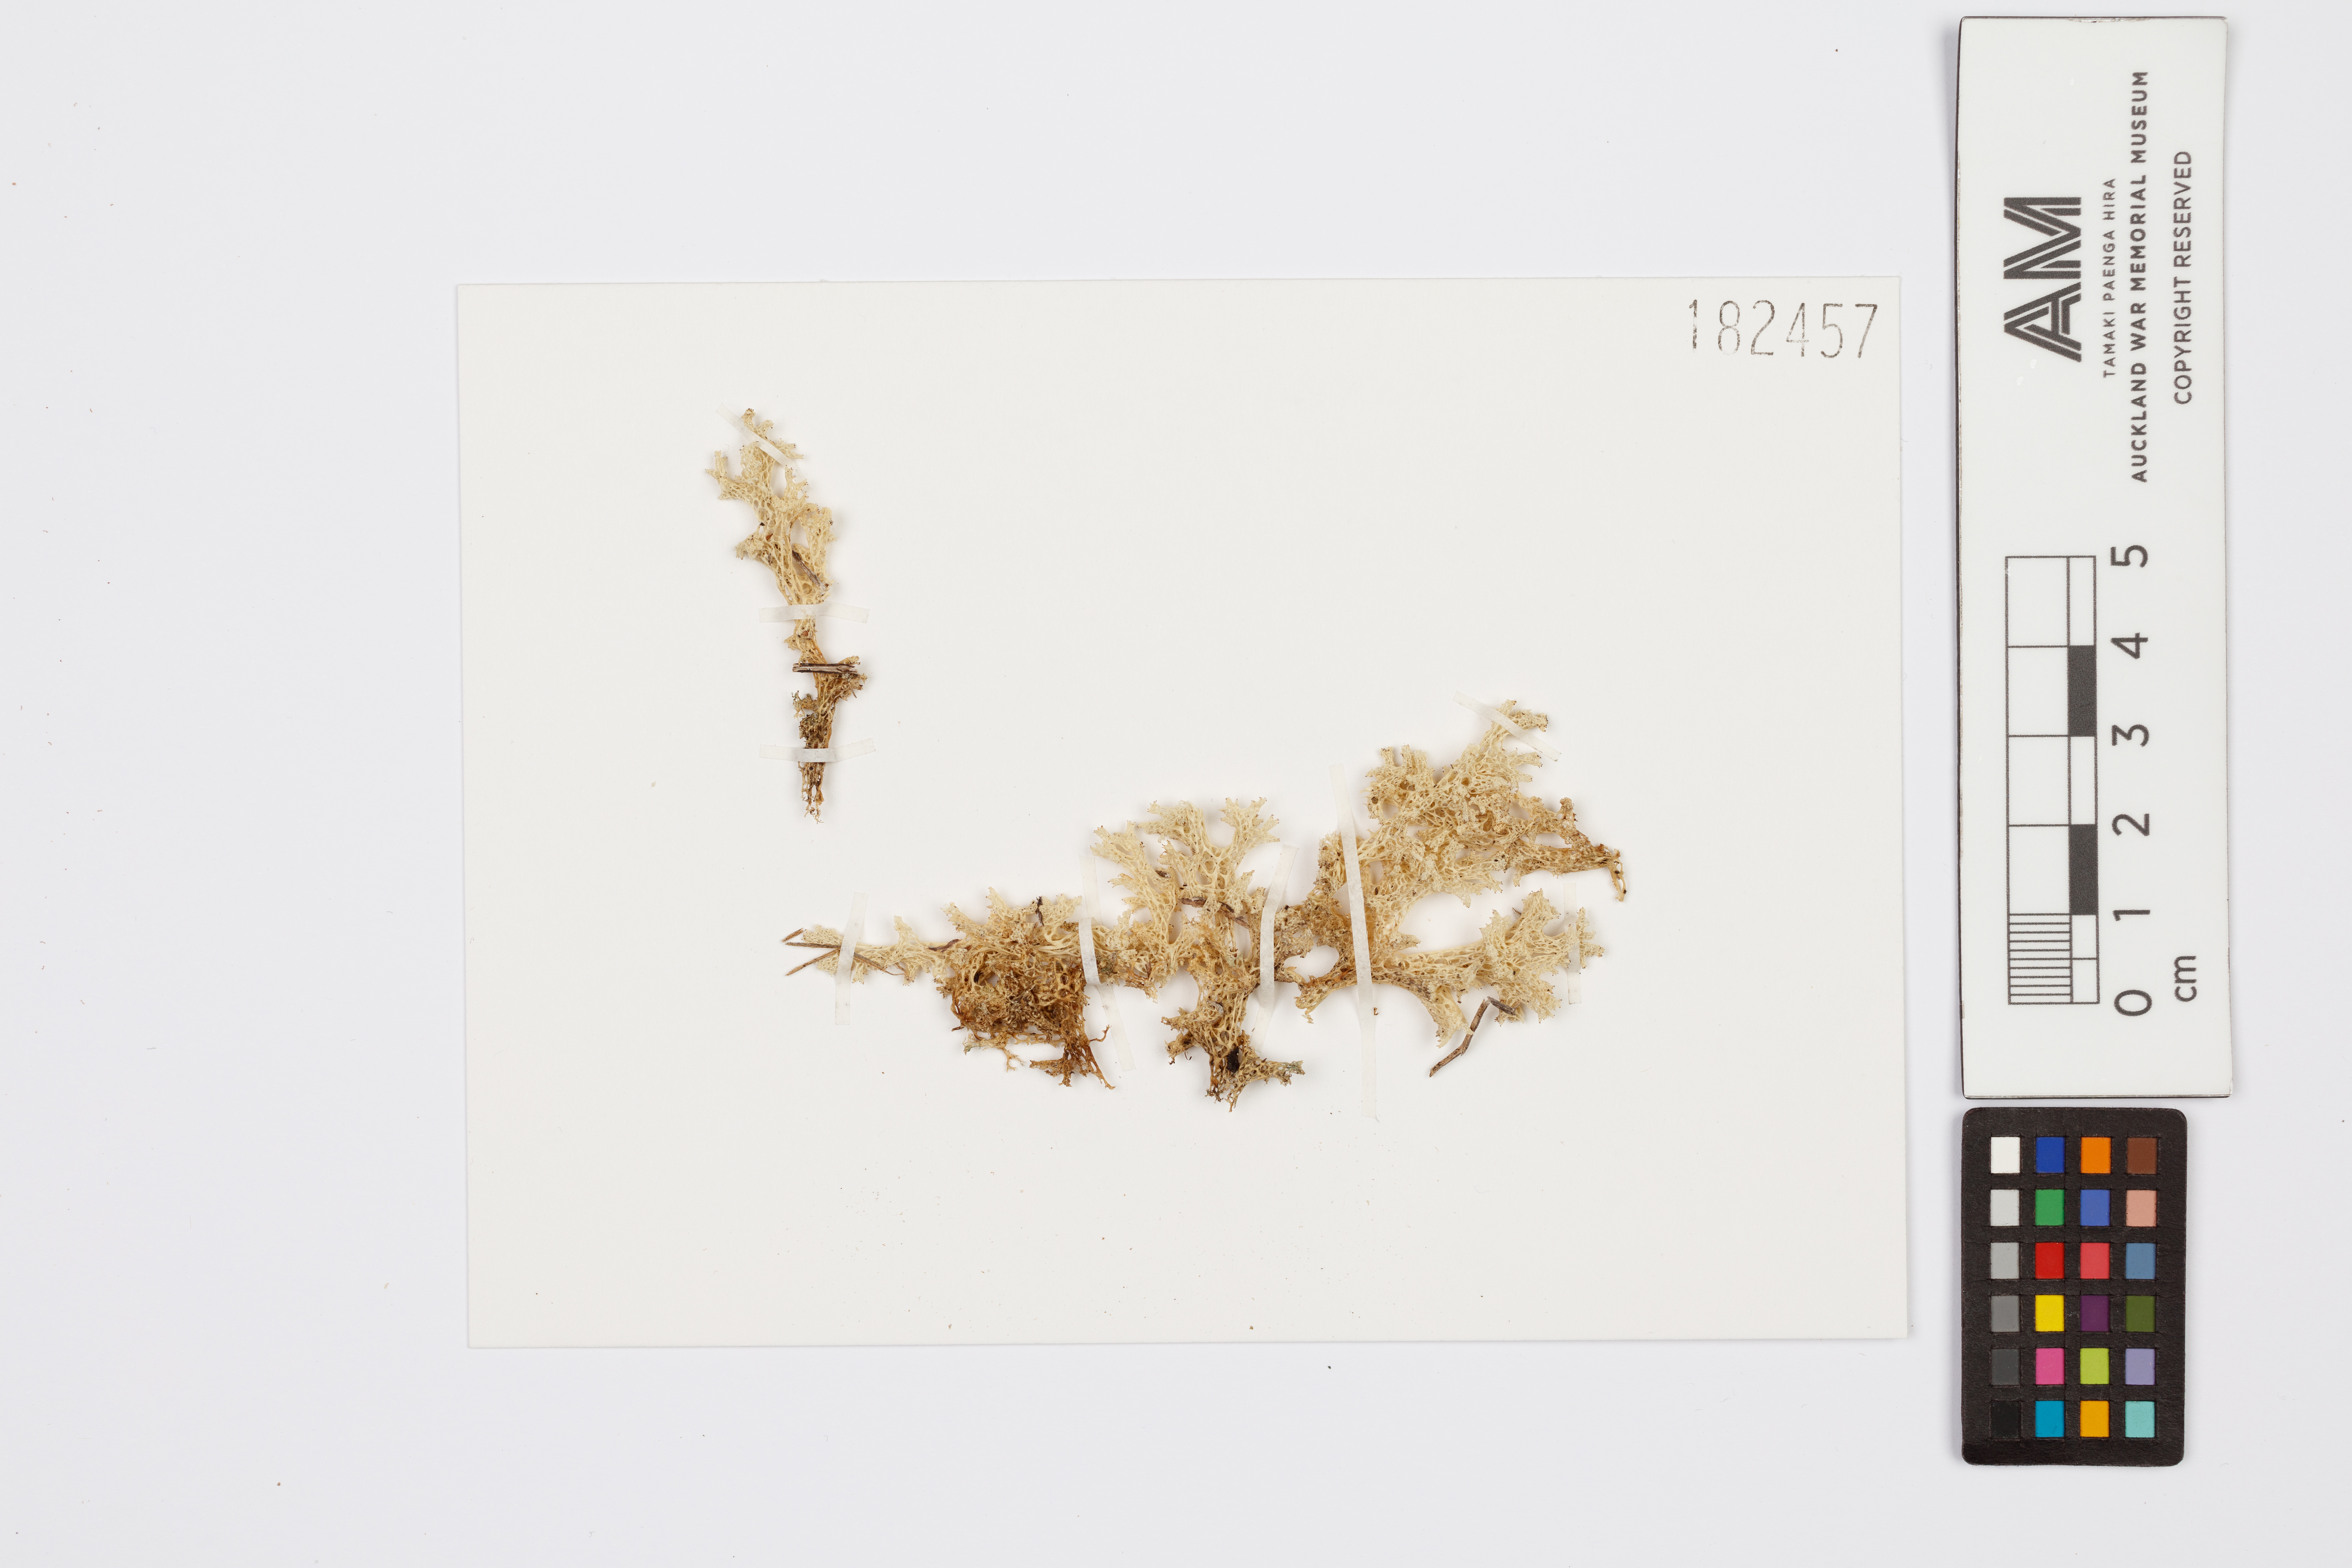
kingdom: Fungi
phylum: Ascomycota
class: Lecanoromycetes
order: Lecanorales
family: Cladoniaceae
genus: Pulchrocladia
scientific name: Pulchrocladia retipora
